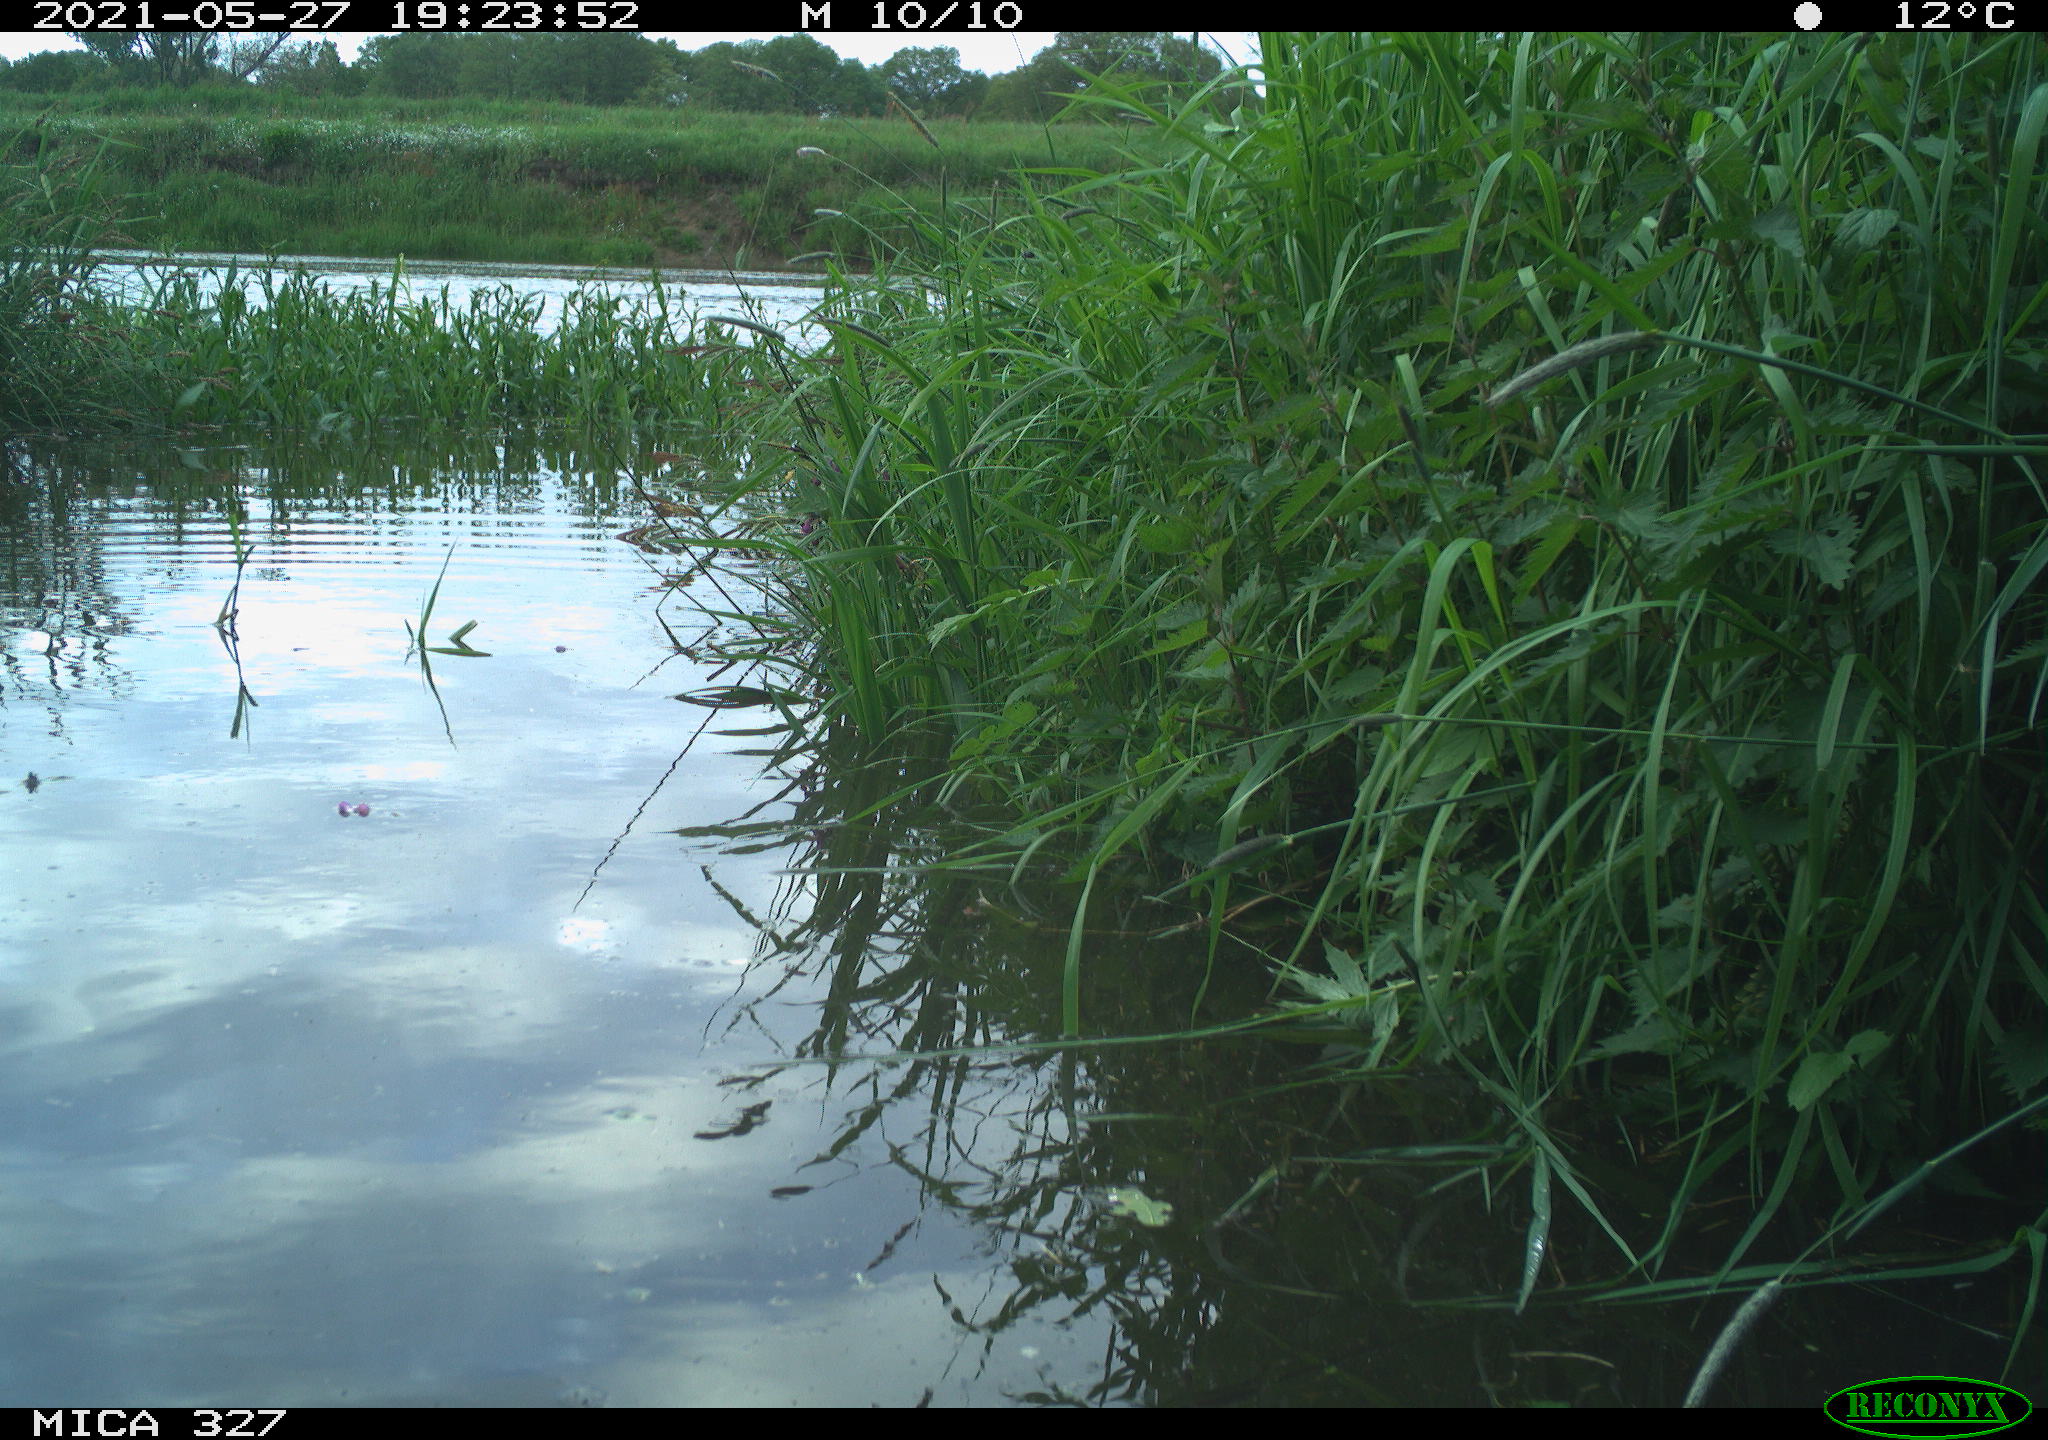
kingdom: Animalia
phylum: Chordata
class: Aves
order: Gruiformes
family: Rallidae
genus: Fulica
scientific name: Fulica atra
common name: Eurasian coot
